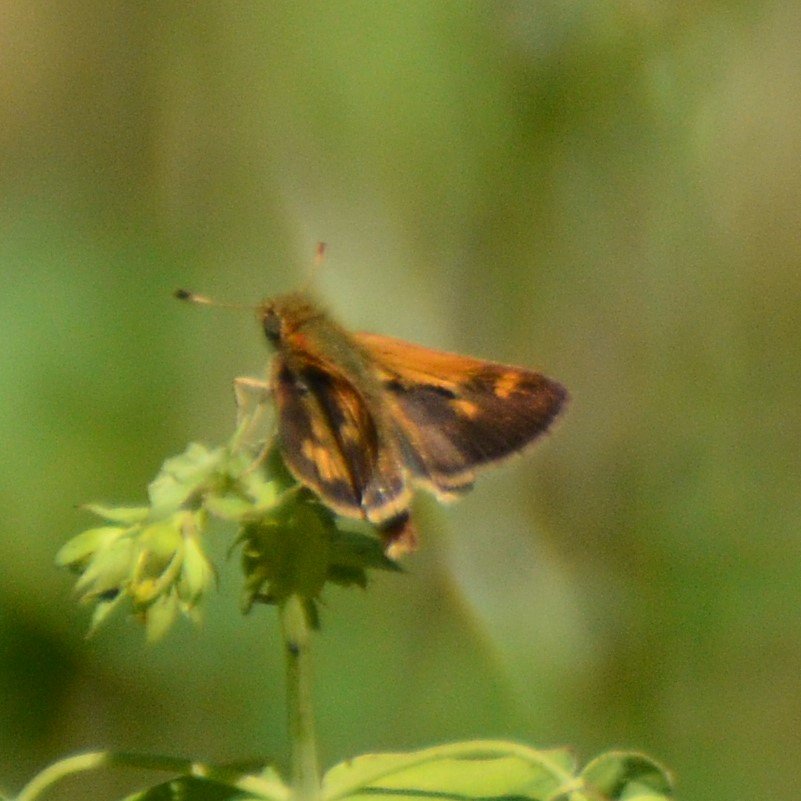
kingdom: Animalia
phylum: Arthropoda
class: Insecta
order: Lepidoptera
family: Hesperiidae
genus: Polites
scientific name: Polites coras
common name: Peck's Skipper
